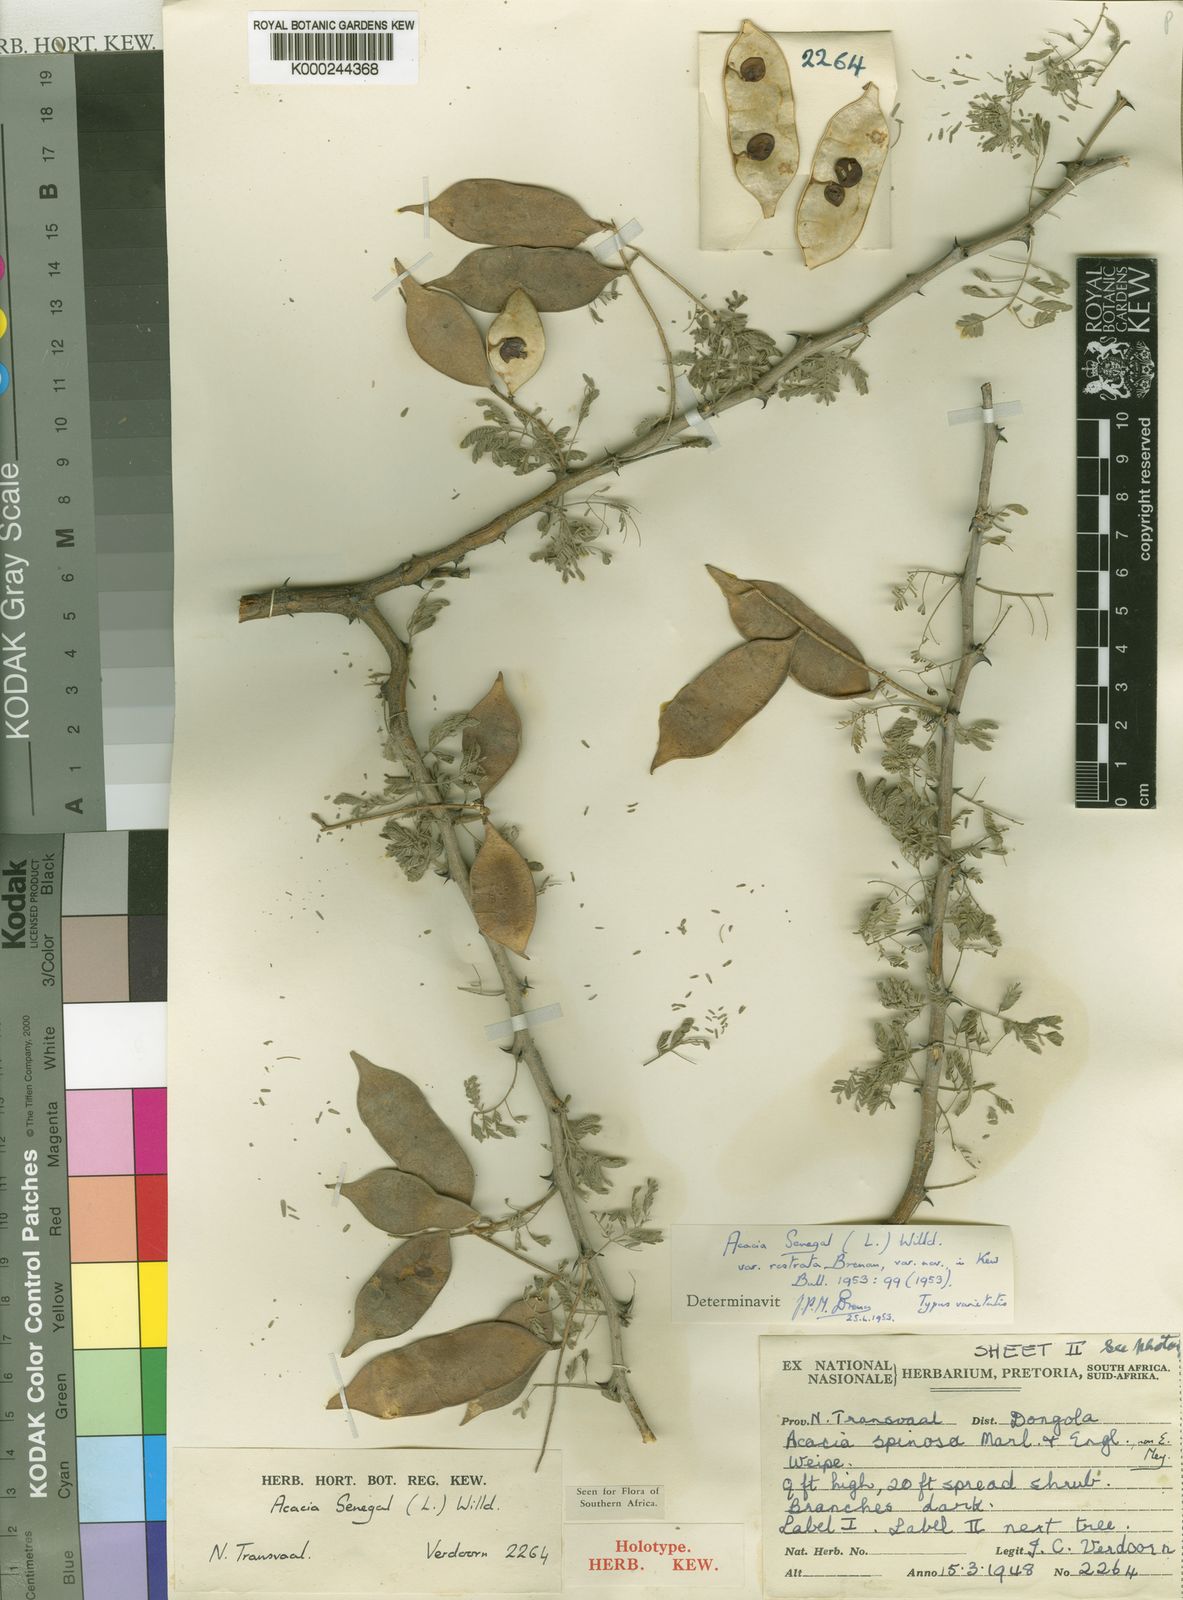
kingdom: Plantae
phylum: Tracheophyta
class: Magnoliopsida
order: Fabales
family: Fabaceae
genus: Senegalia
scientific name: Senegalia senegal
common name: Senegal-gum
